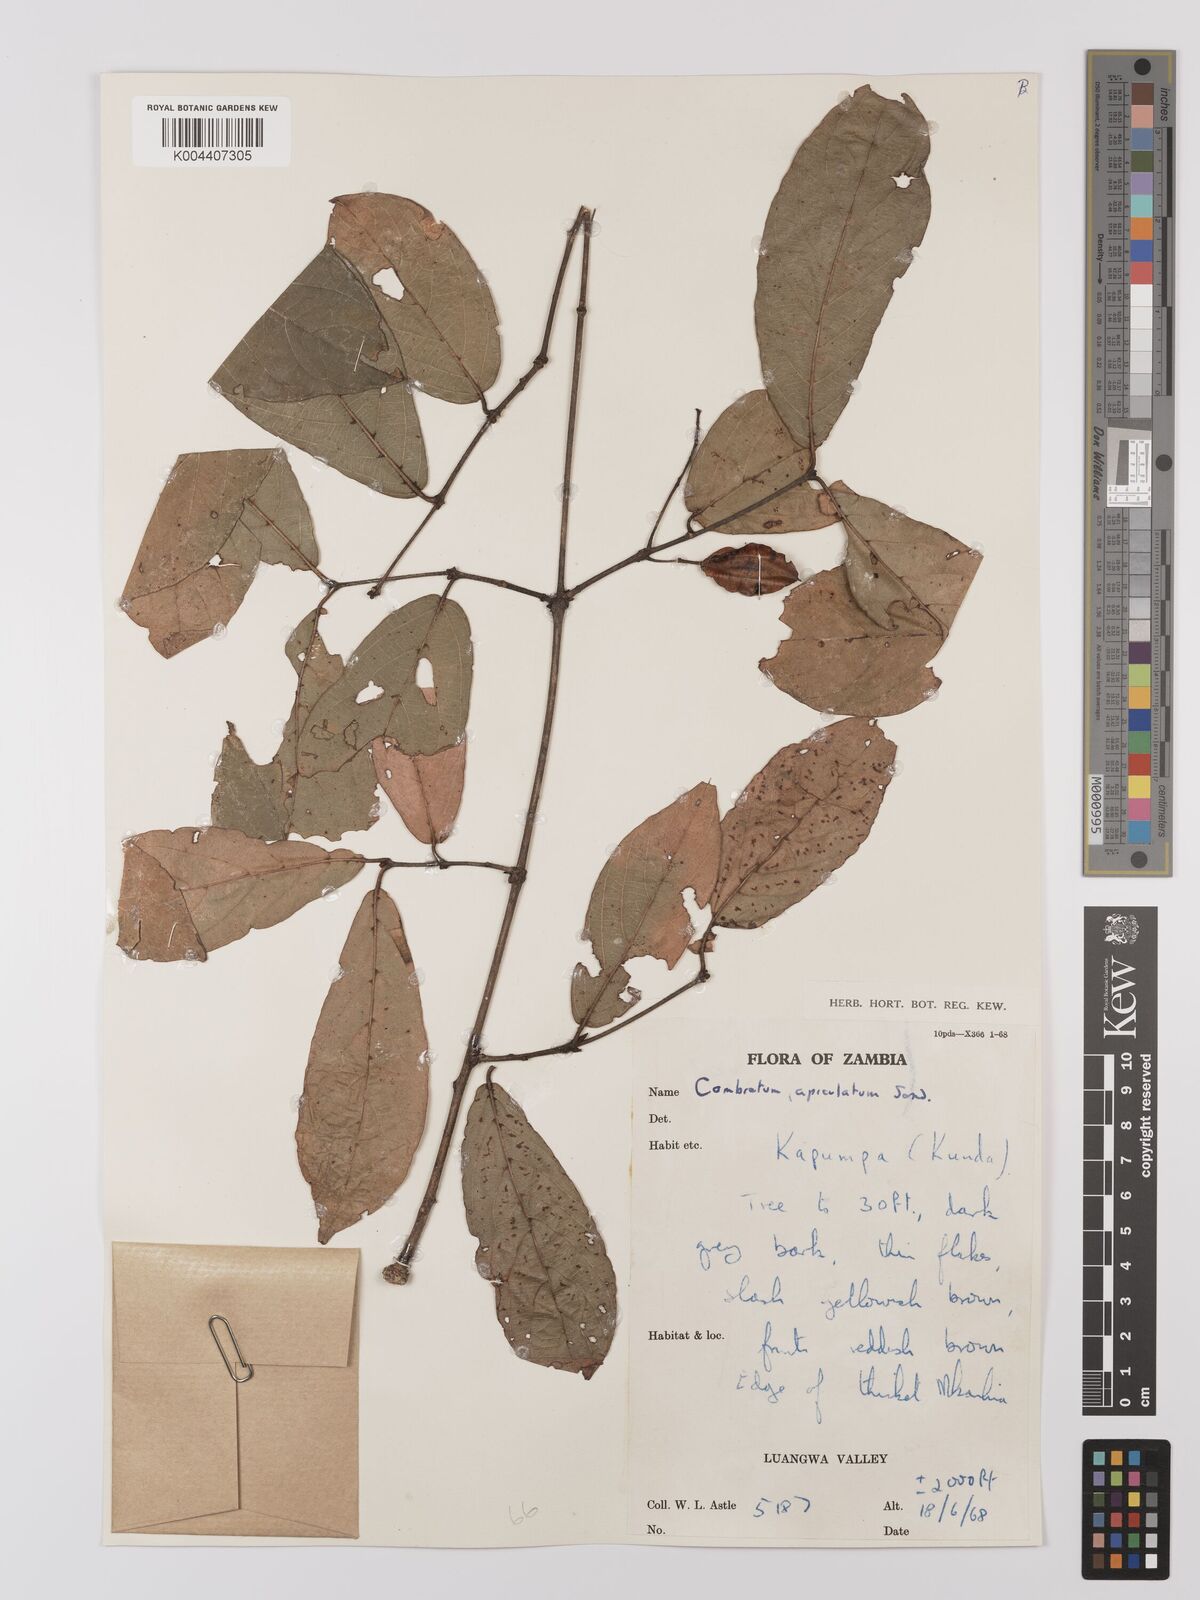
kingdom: Plantae
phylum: Tracheophyta
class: Magnoliopsida
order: Myrtales
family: Combretaceae
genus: Combretum
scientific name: Combretum apiculatum
